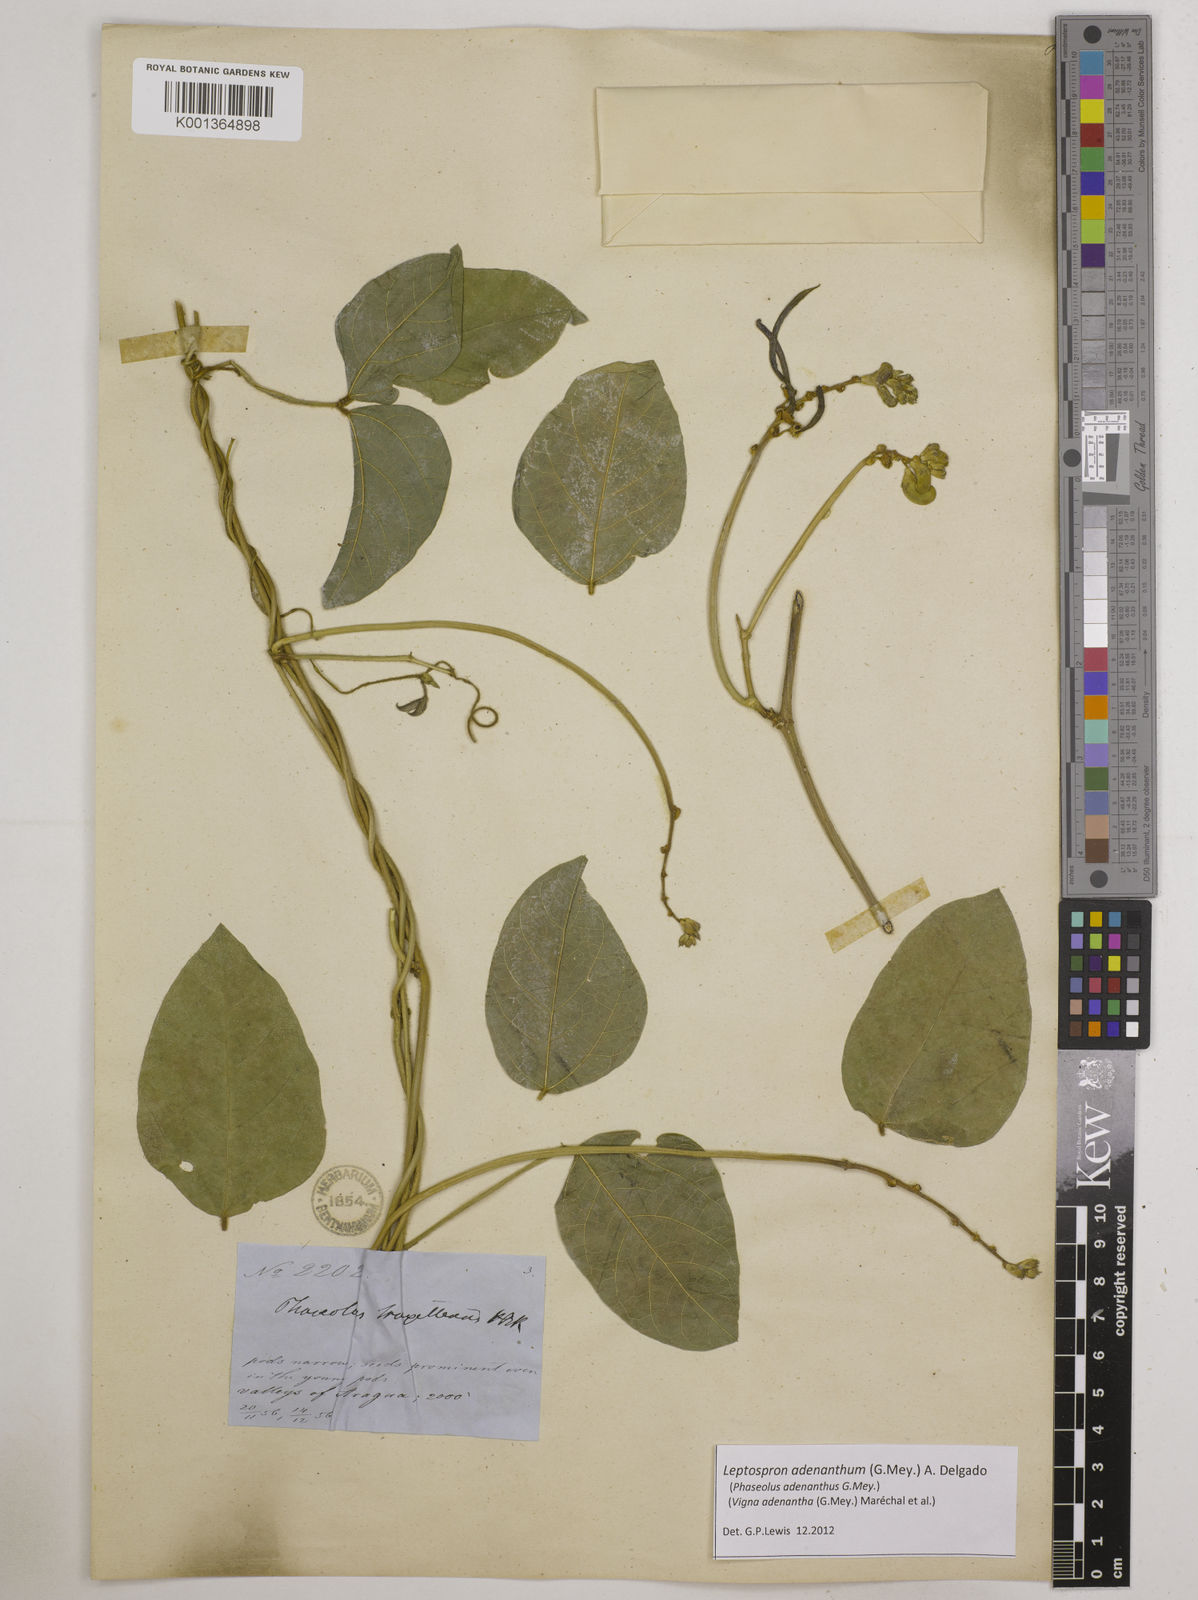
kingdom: Plantae
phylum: Tracheophyta
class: Magnoliopsida
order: Fabales
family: Fabaceae
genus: Leptospron
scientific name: Leptospron adenanthum
